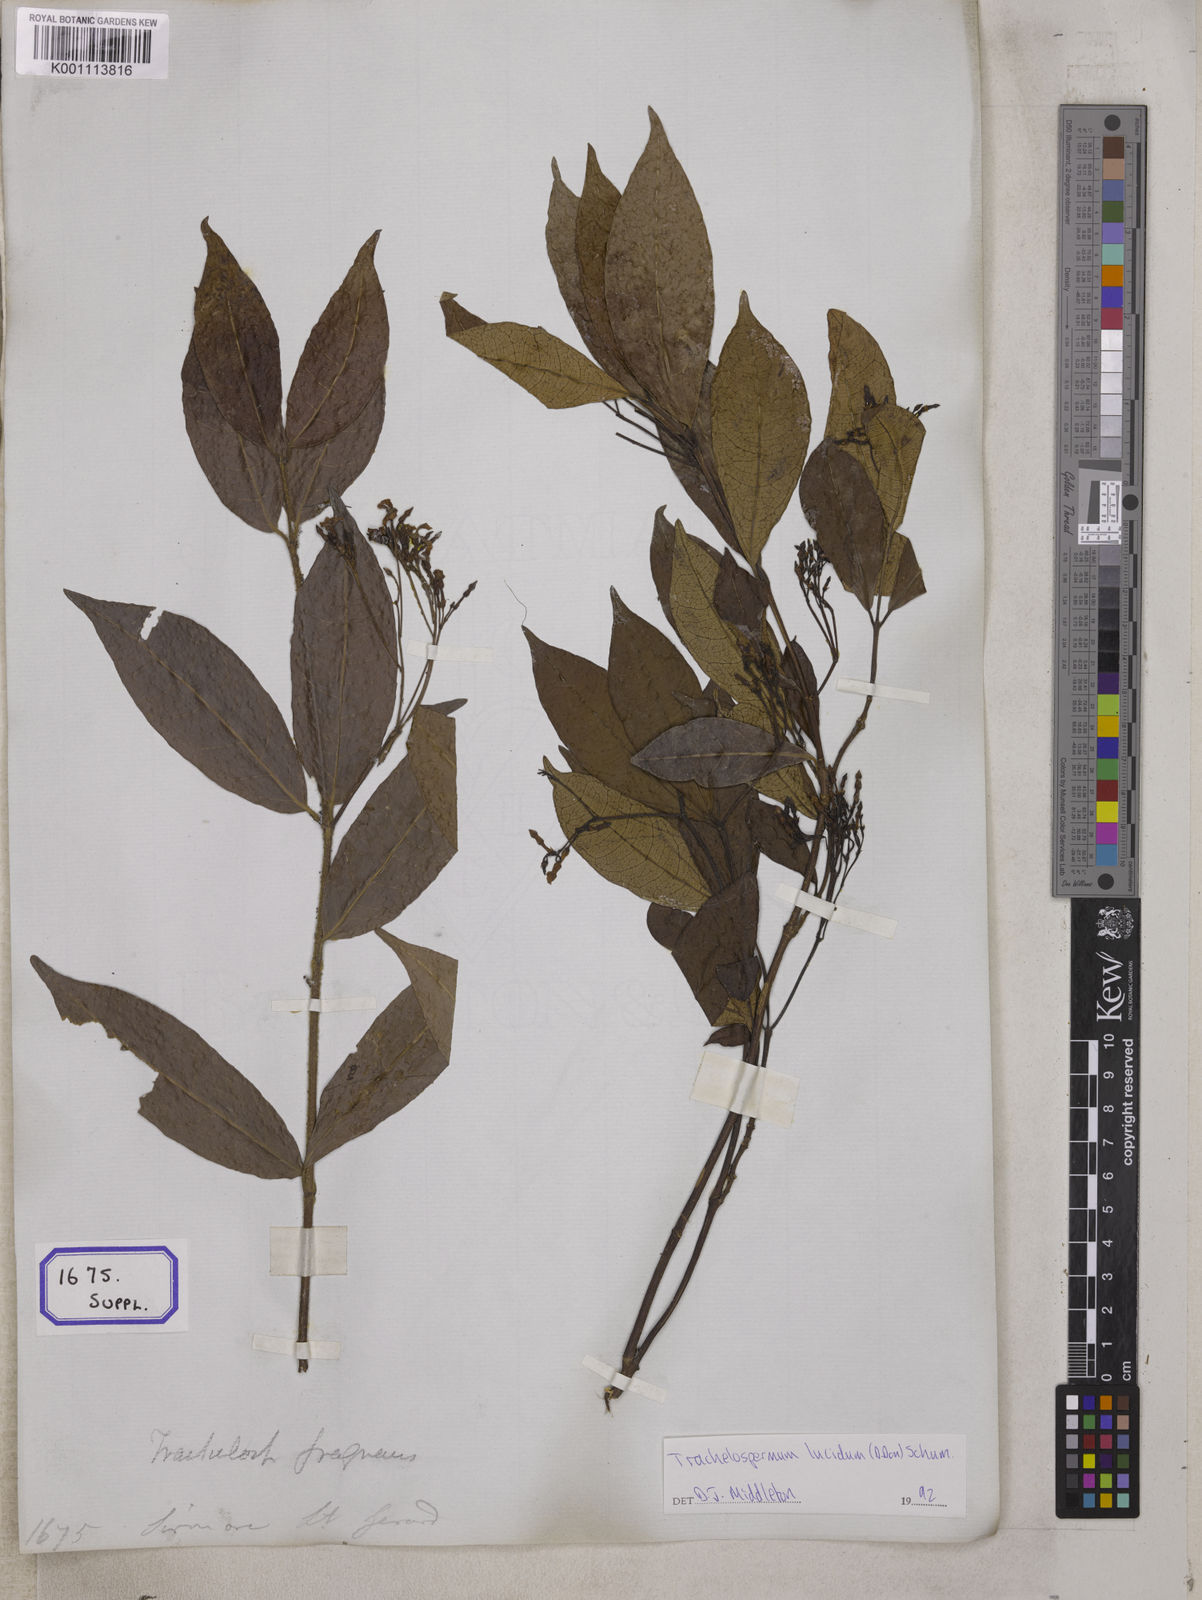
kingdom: Plantae
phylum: Tracheophyta
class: Magnoliopsida
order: Gentianales
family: Apocynaceae
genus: Ichnocarpus
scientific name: Ichnocarpus
